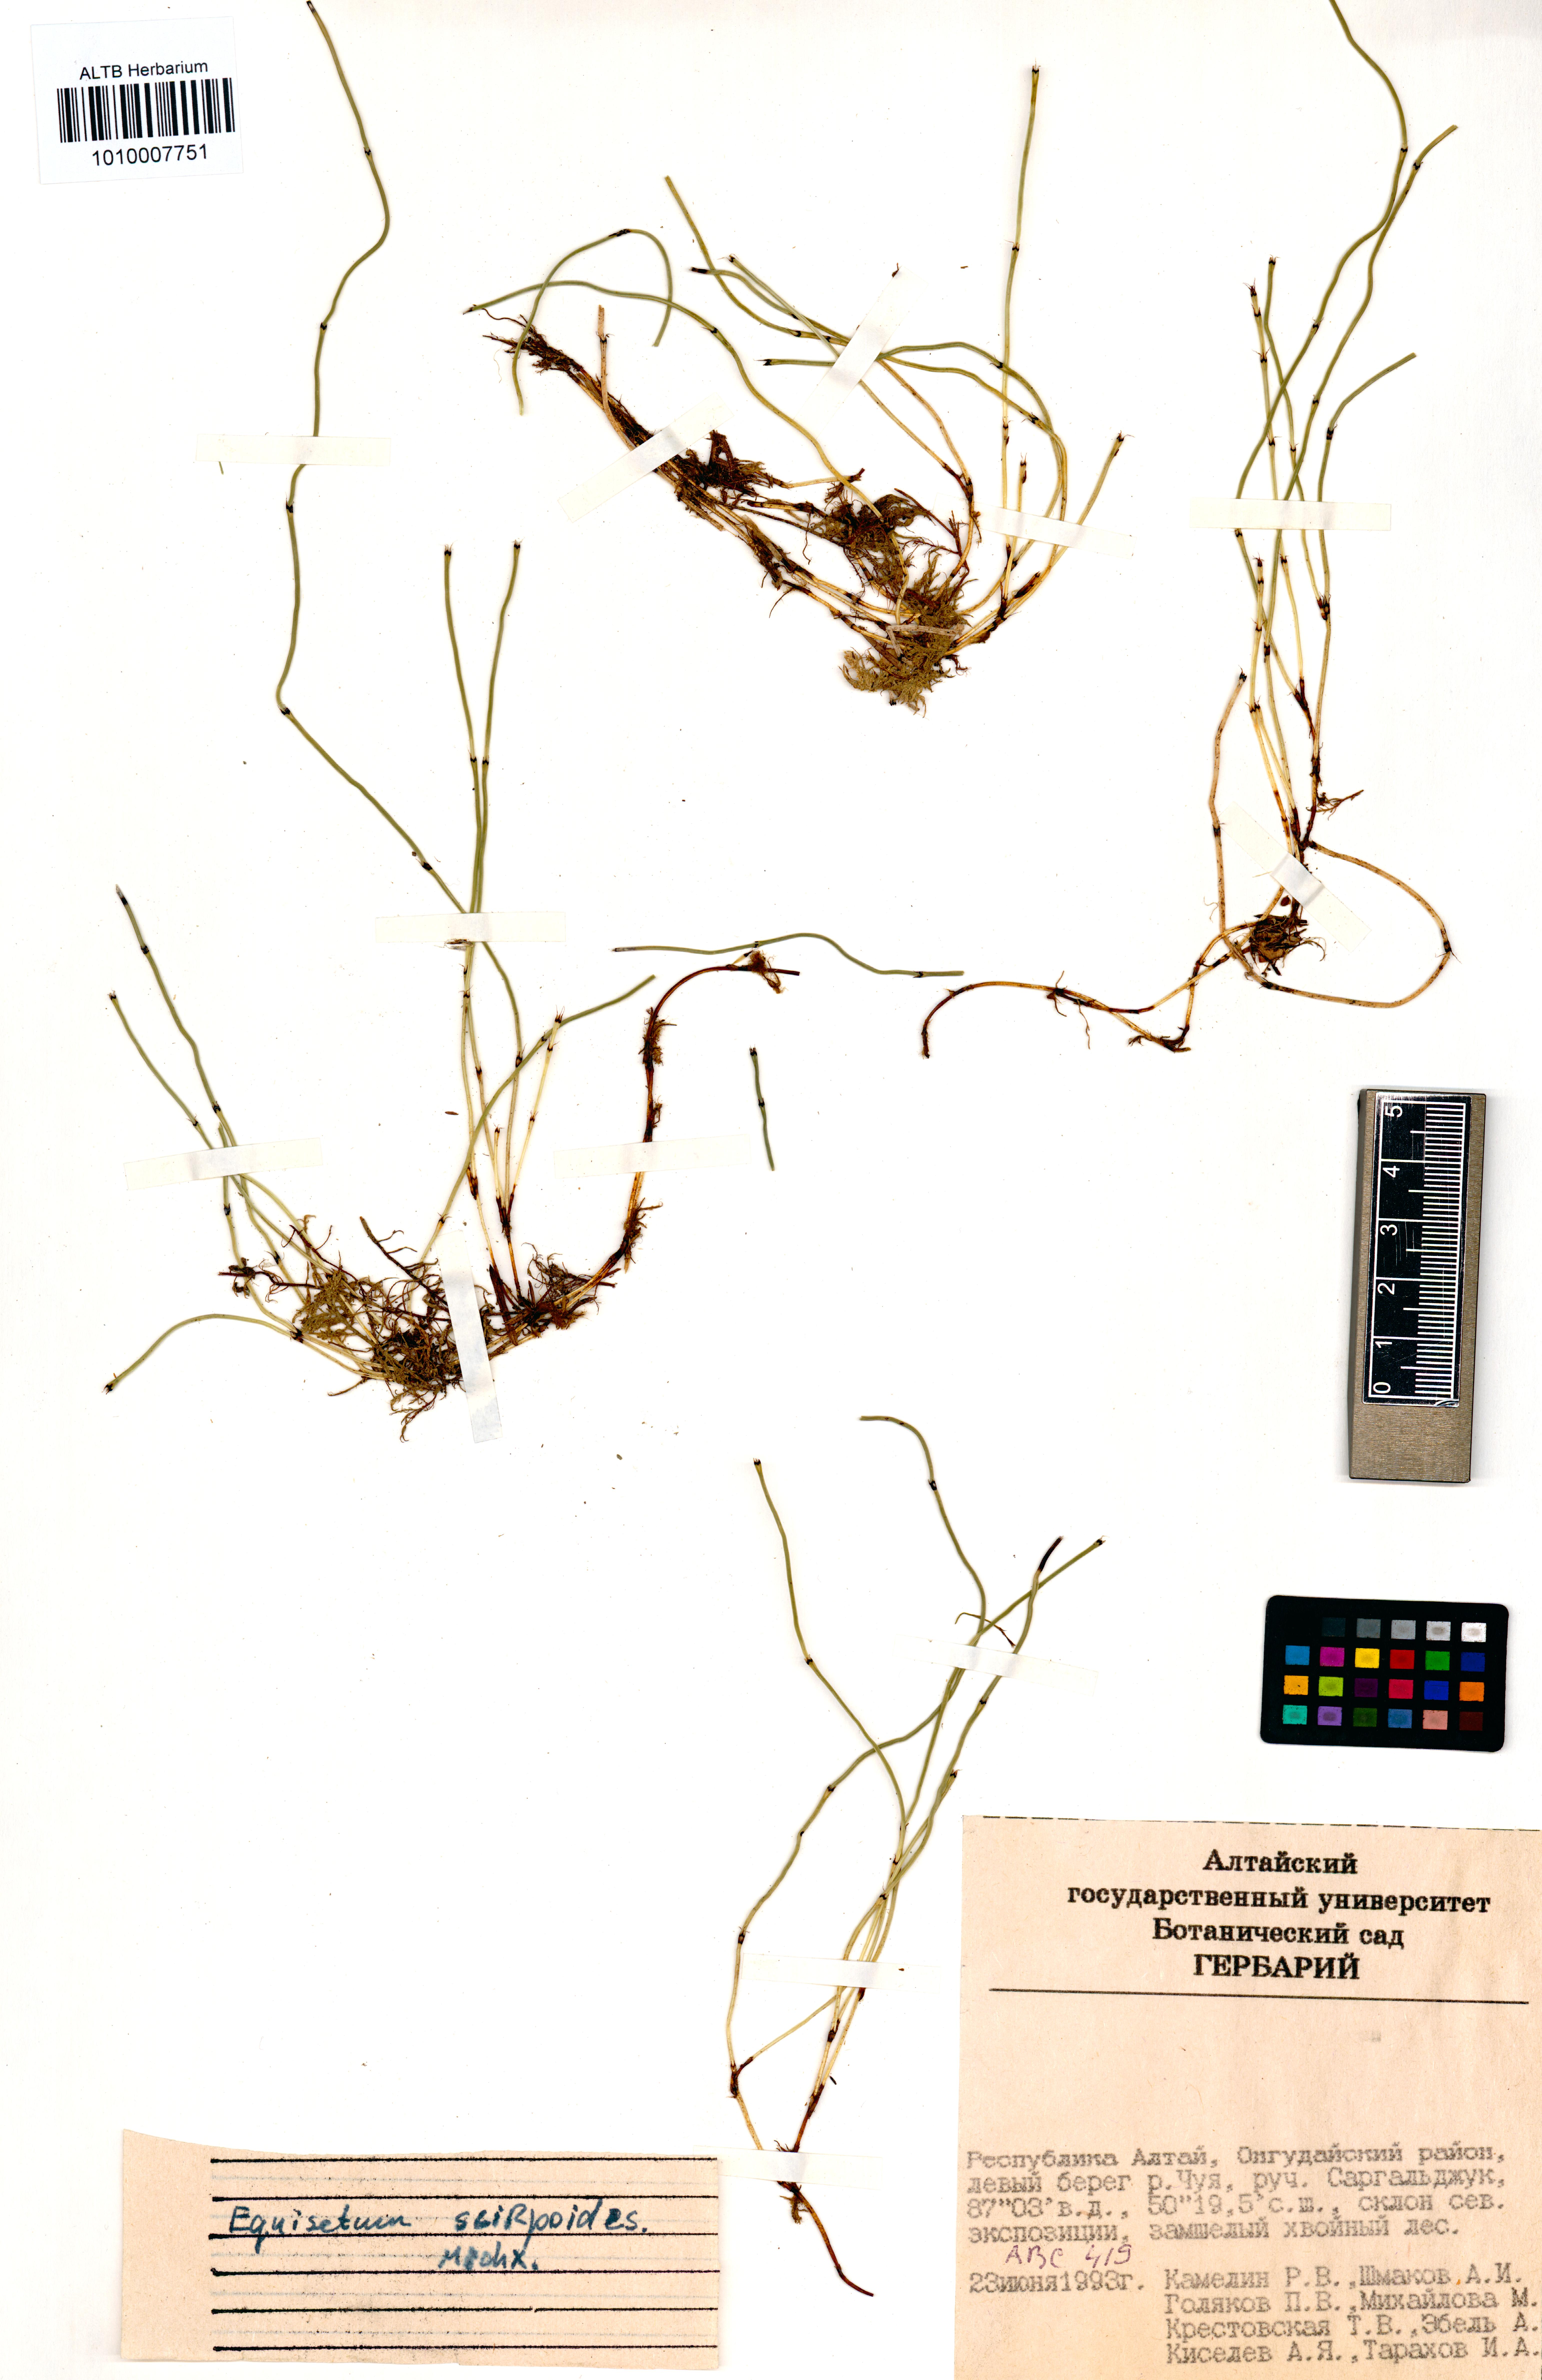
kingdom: Plantae
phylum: Tracheophyta
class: Polypodiopsida
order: Equisetales
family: Equisetaceae
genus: Equisetum
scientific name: Equisetum scirpoides
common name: Delicate horsetail
